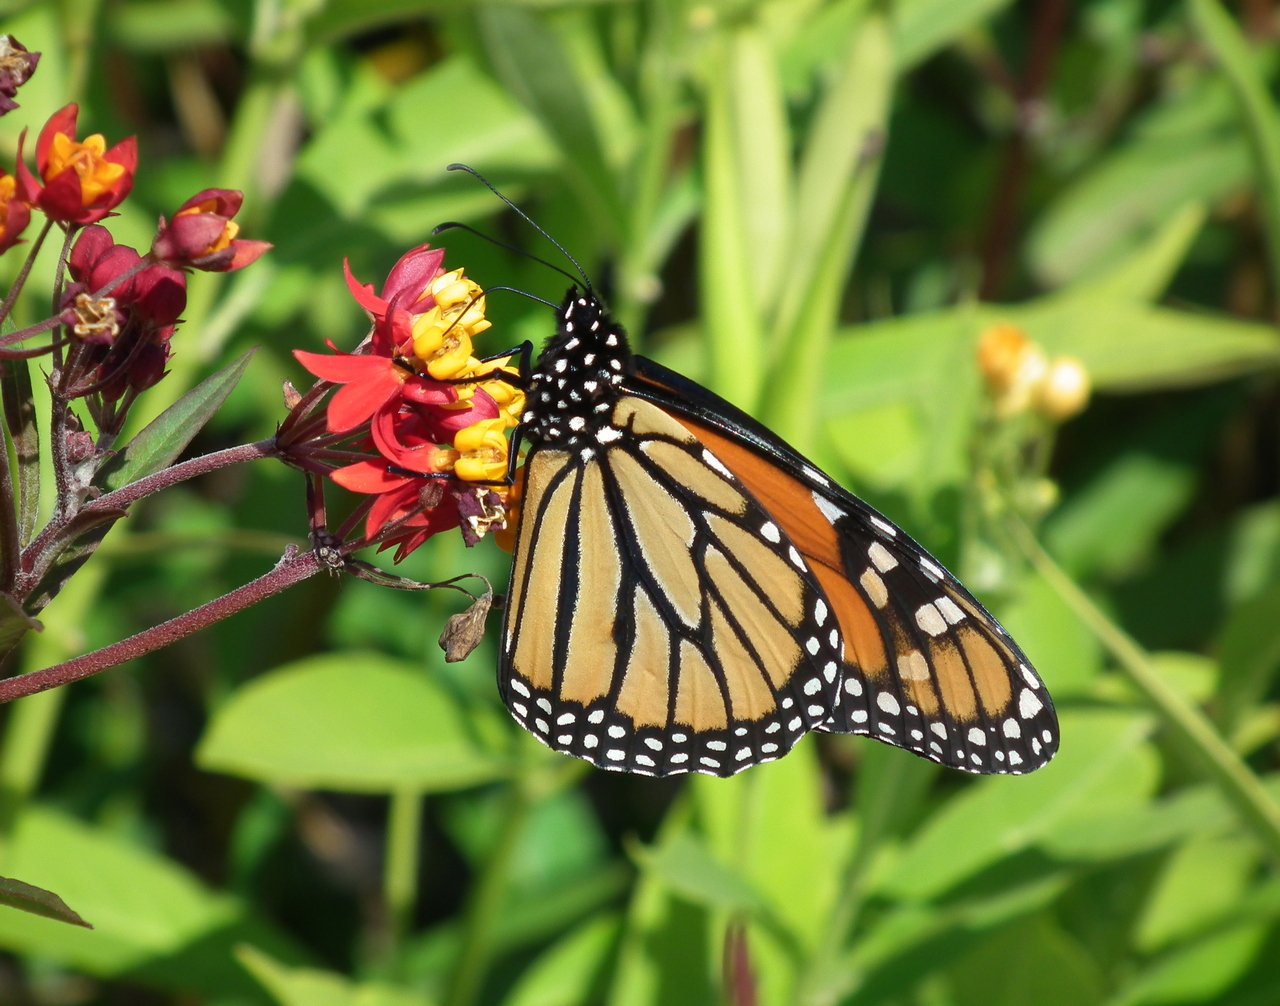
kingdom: Animalia
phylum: Arthropoda
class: Insecta
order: Lepidoptera
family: Nymphalidae
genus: Danaus
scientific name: Danaus plexippus
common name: Monarch
